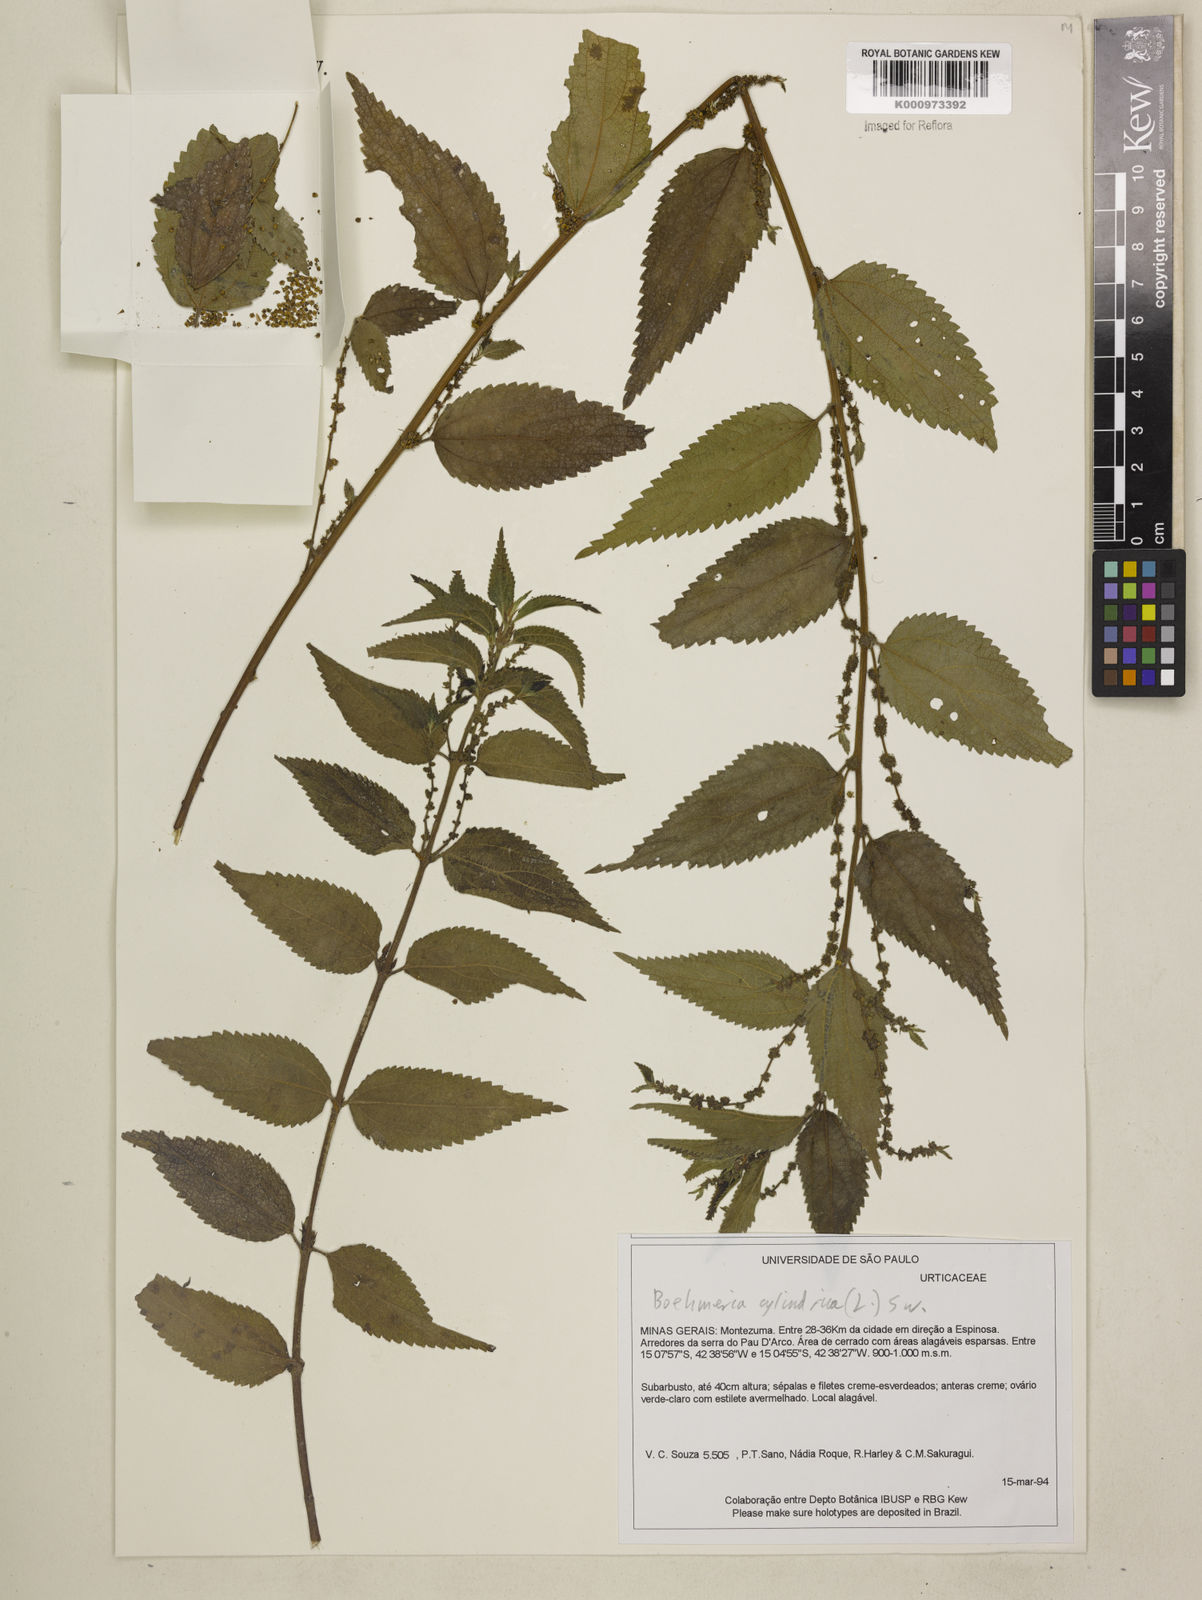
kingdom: Plantae
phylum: Tracheophyta
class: Magnoliopsida
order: Rosales
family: Urticaceae
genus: Boehmeria
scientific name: Boehmeria cylindrica
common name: Bog-hemp
